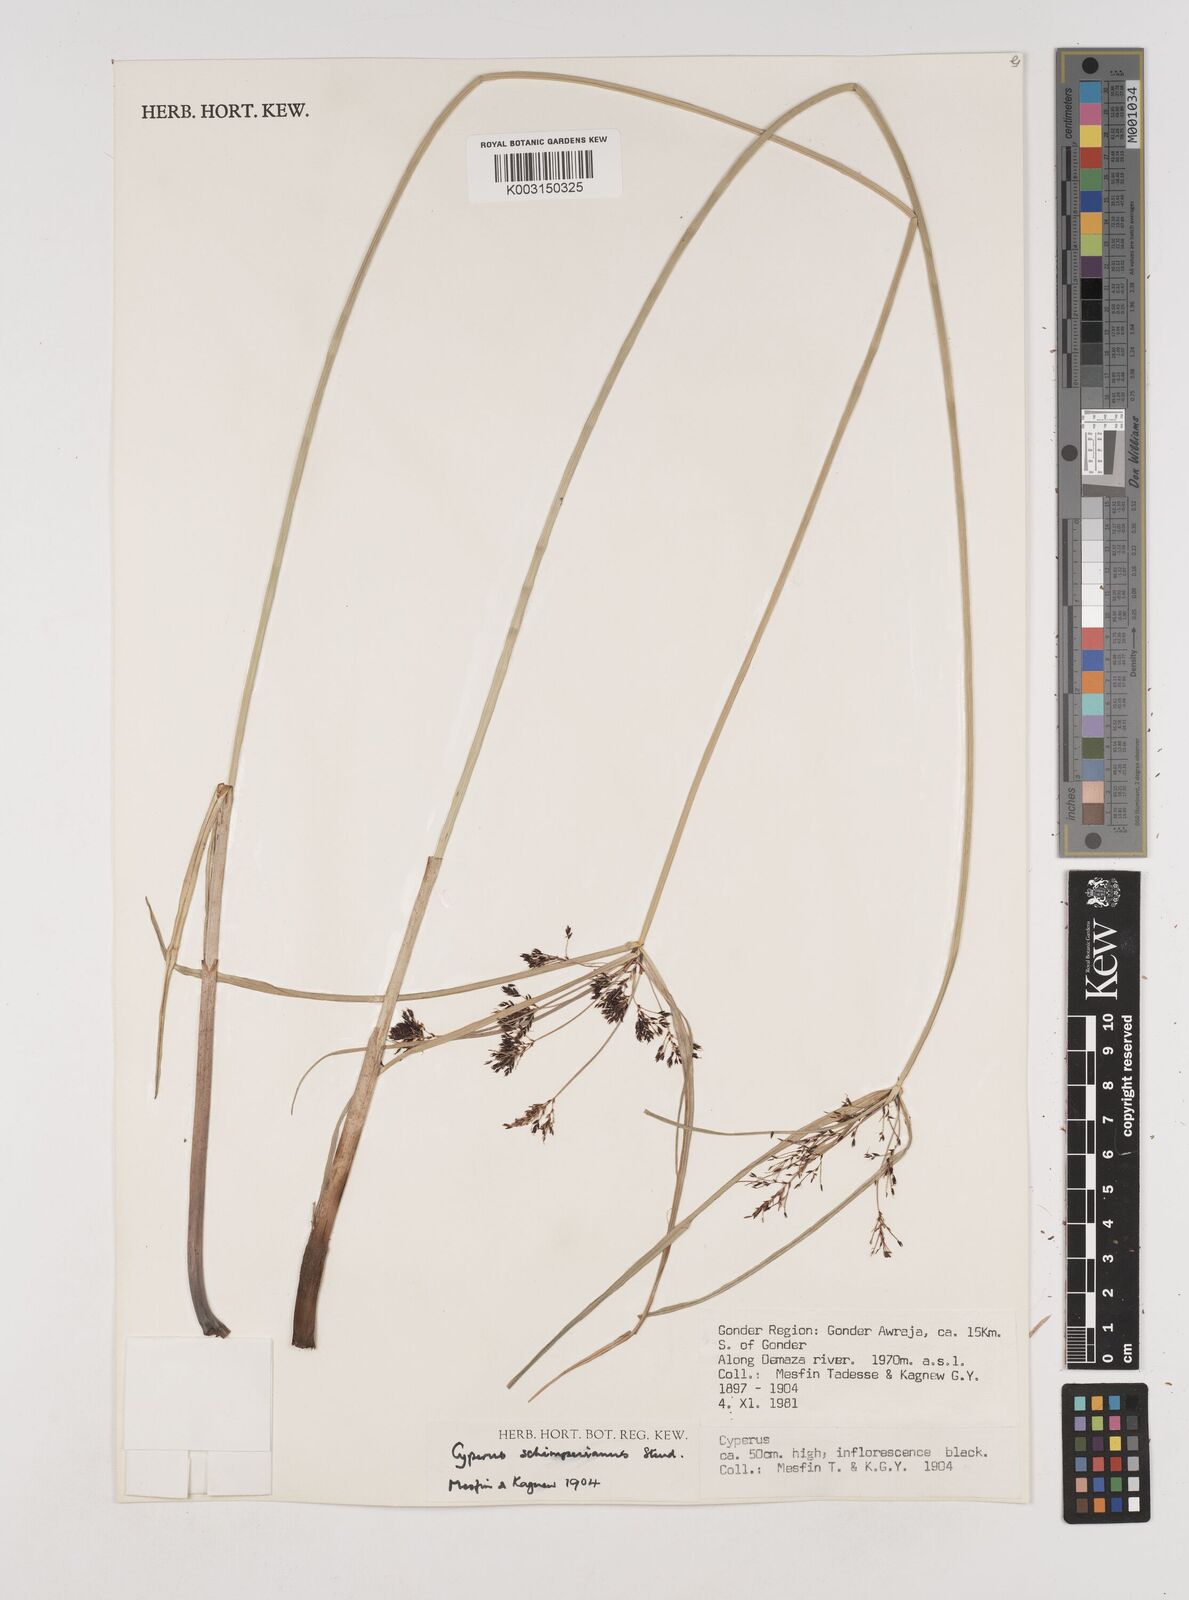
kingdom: Plantae
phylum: Tracheophyta
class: Liliopsida
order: Poales
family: Cyperaceae
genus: Cyperus
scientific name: Cyperus schimperianus
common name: Schimper flatsedge
